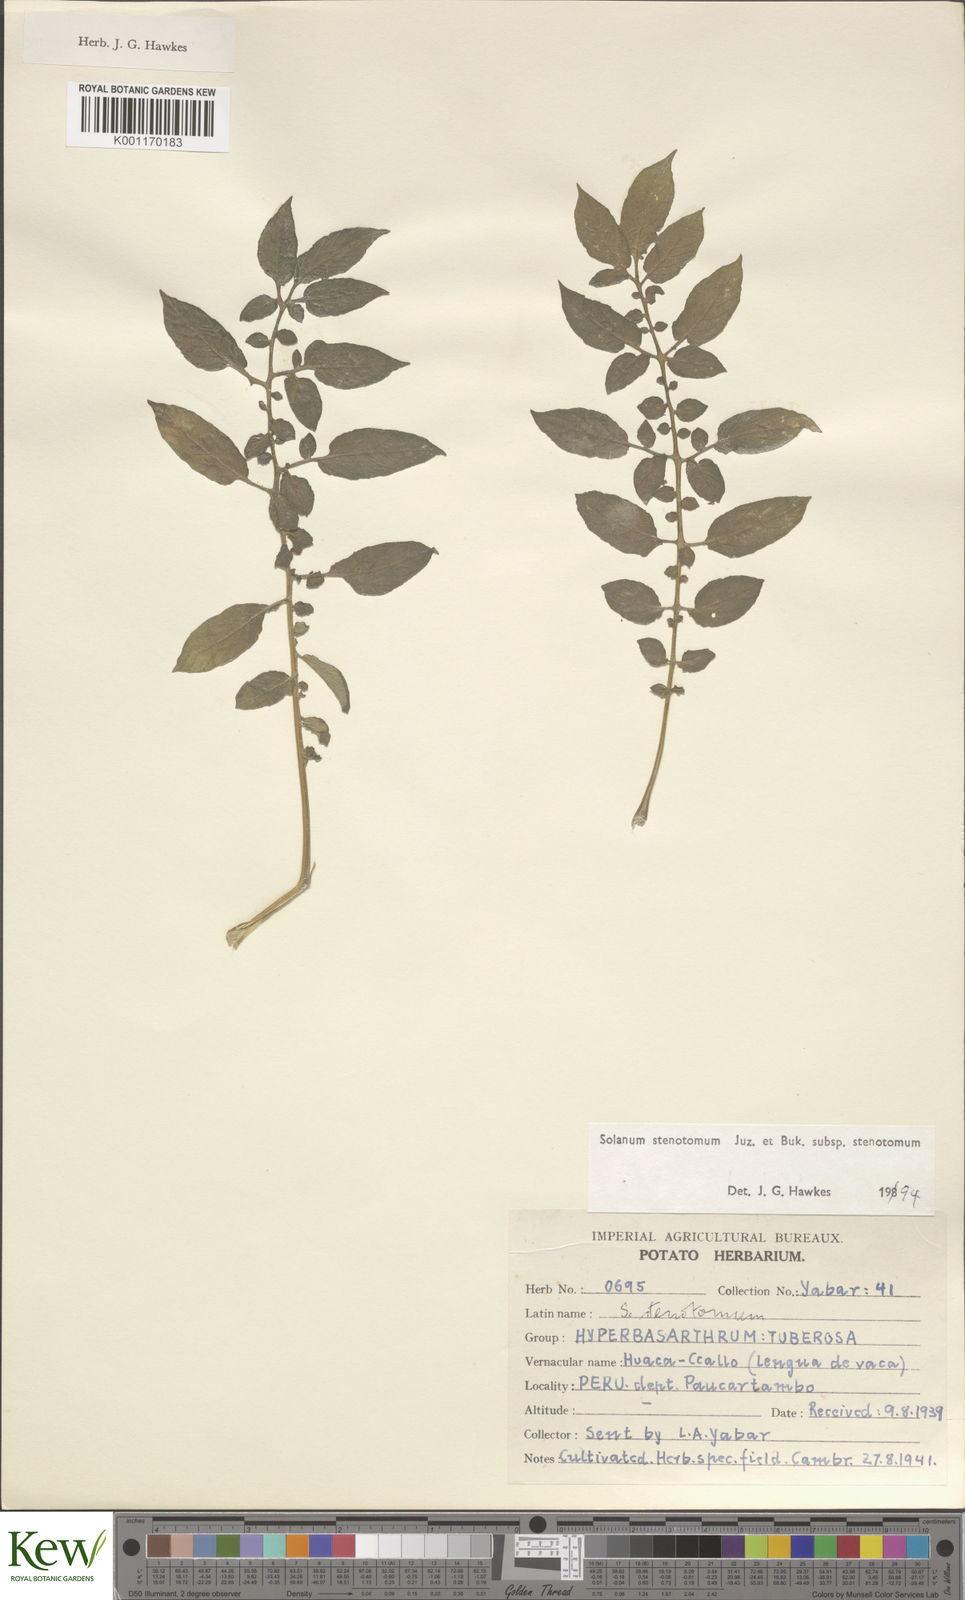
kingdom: Plantae
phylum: Tracheophyta
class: Magnoliopsida
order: Solanales
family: Solanaceae
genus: Solanum
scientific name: Solanum tuberosum
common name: Potato
